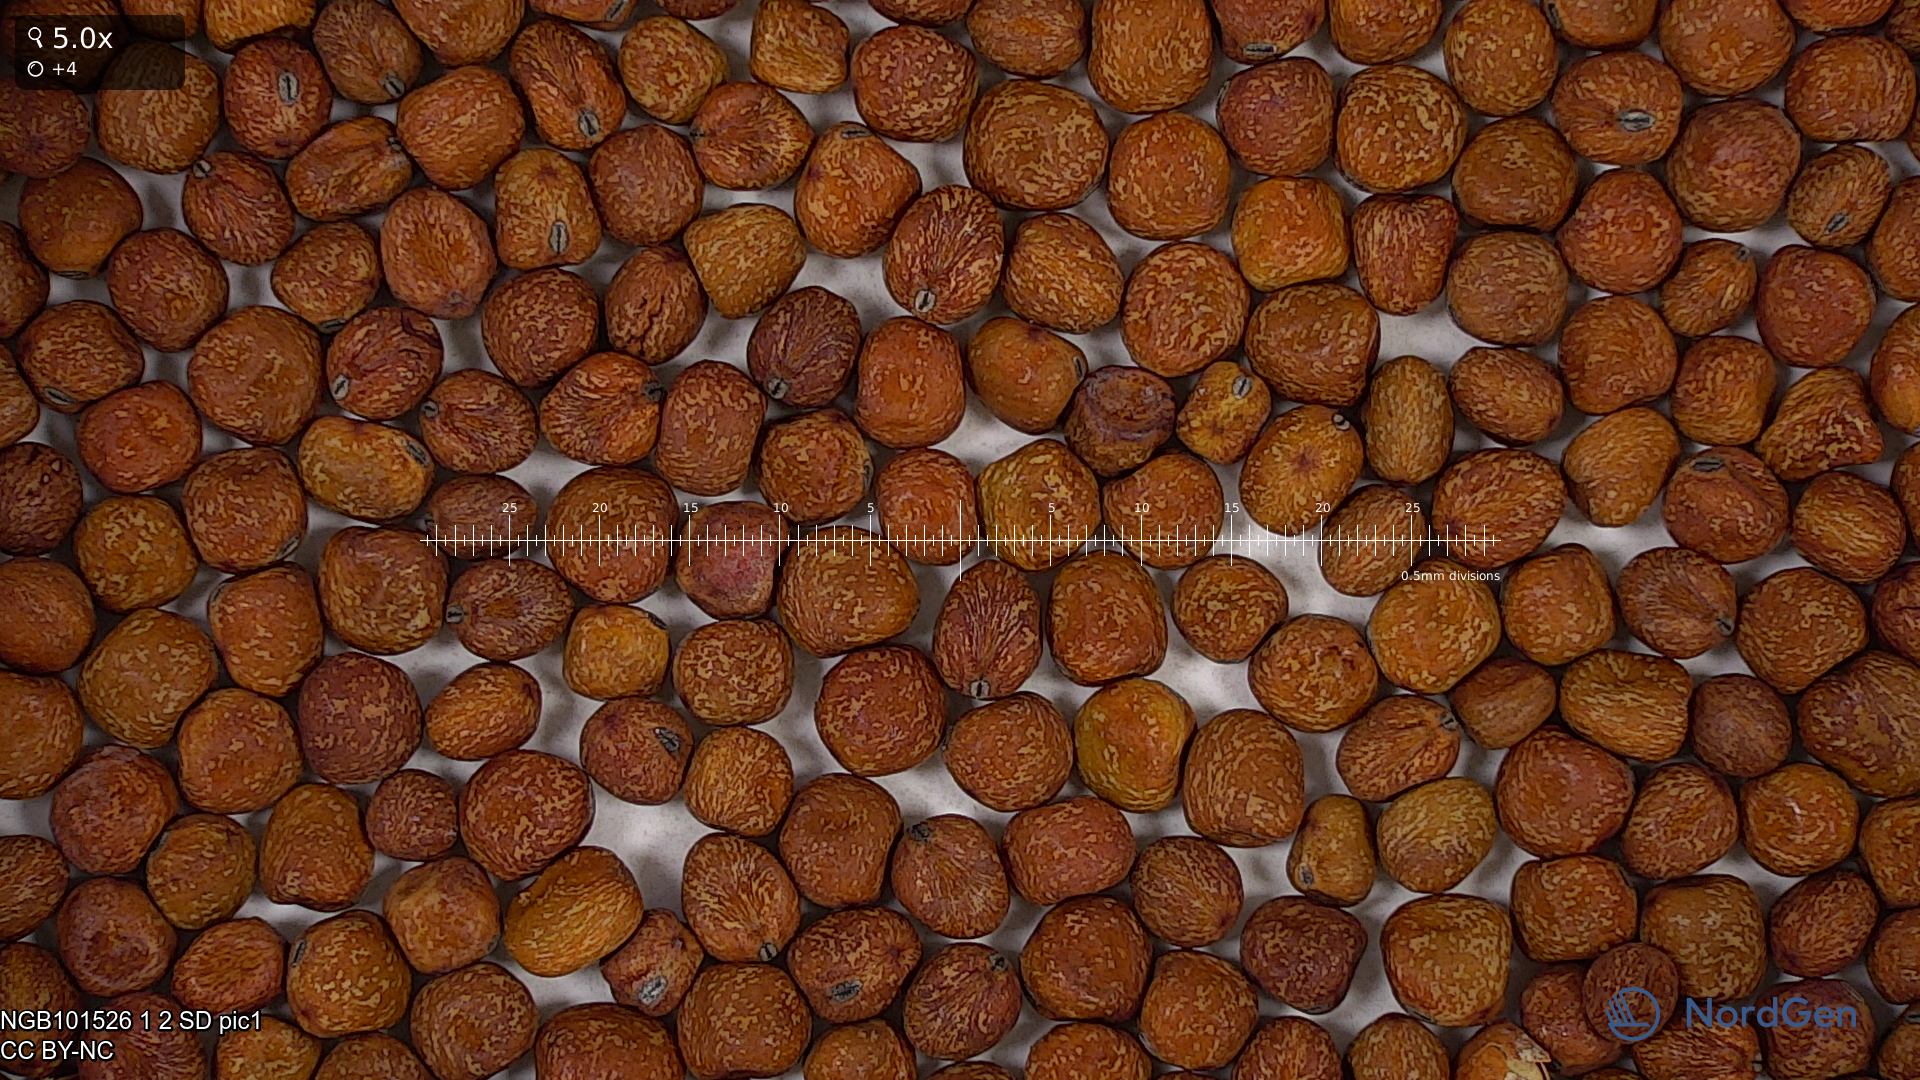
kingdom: Plantae
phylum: Tracheophyta
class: Magnoliopsida
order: Fabales
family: Fabaceae
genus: Lathyrus
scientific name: Lathyrus oleraceus
